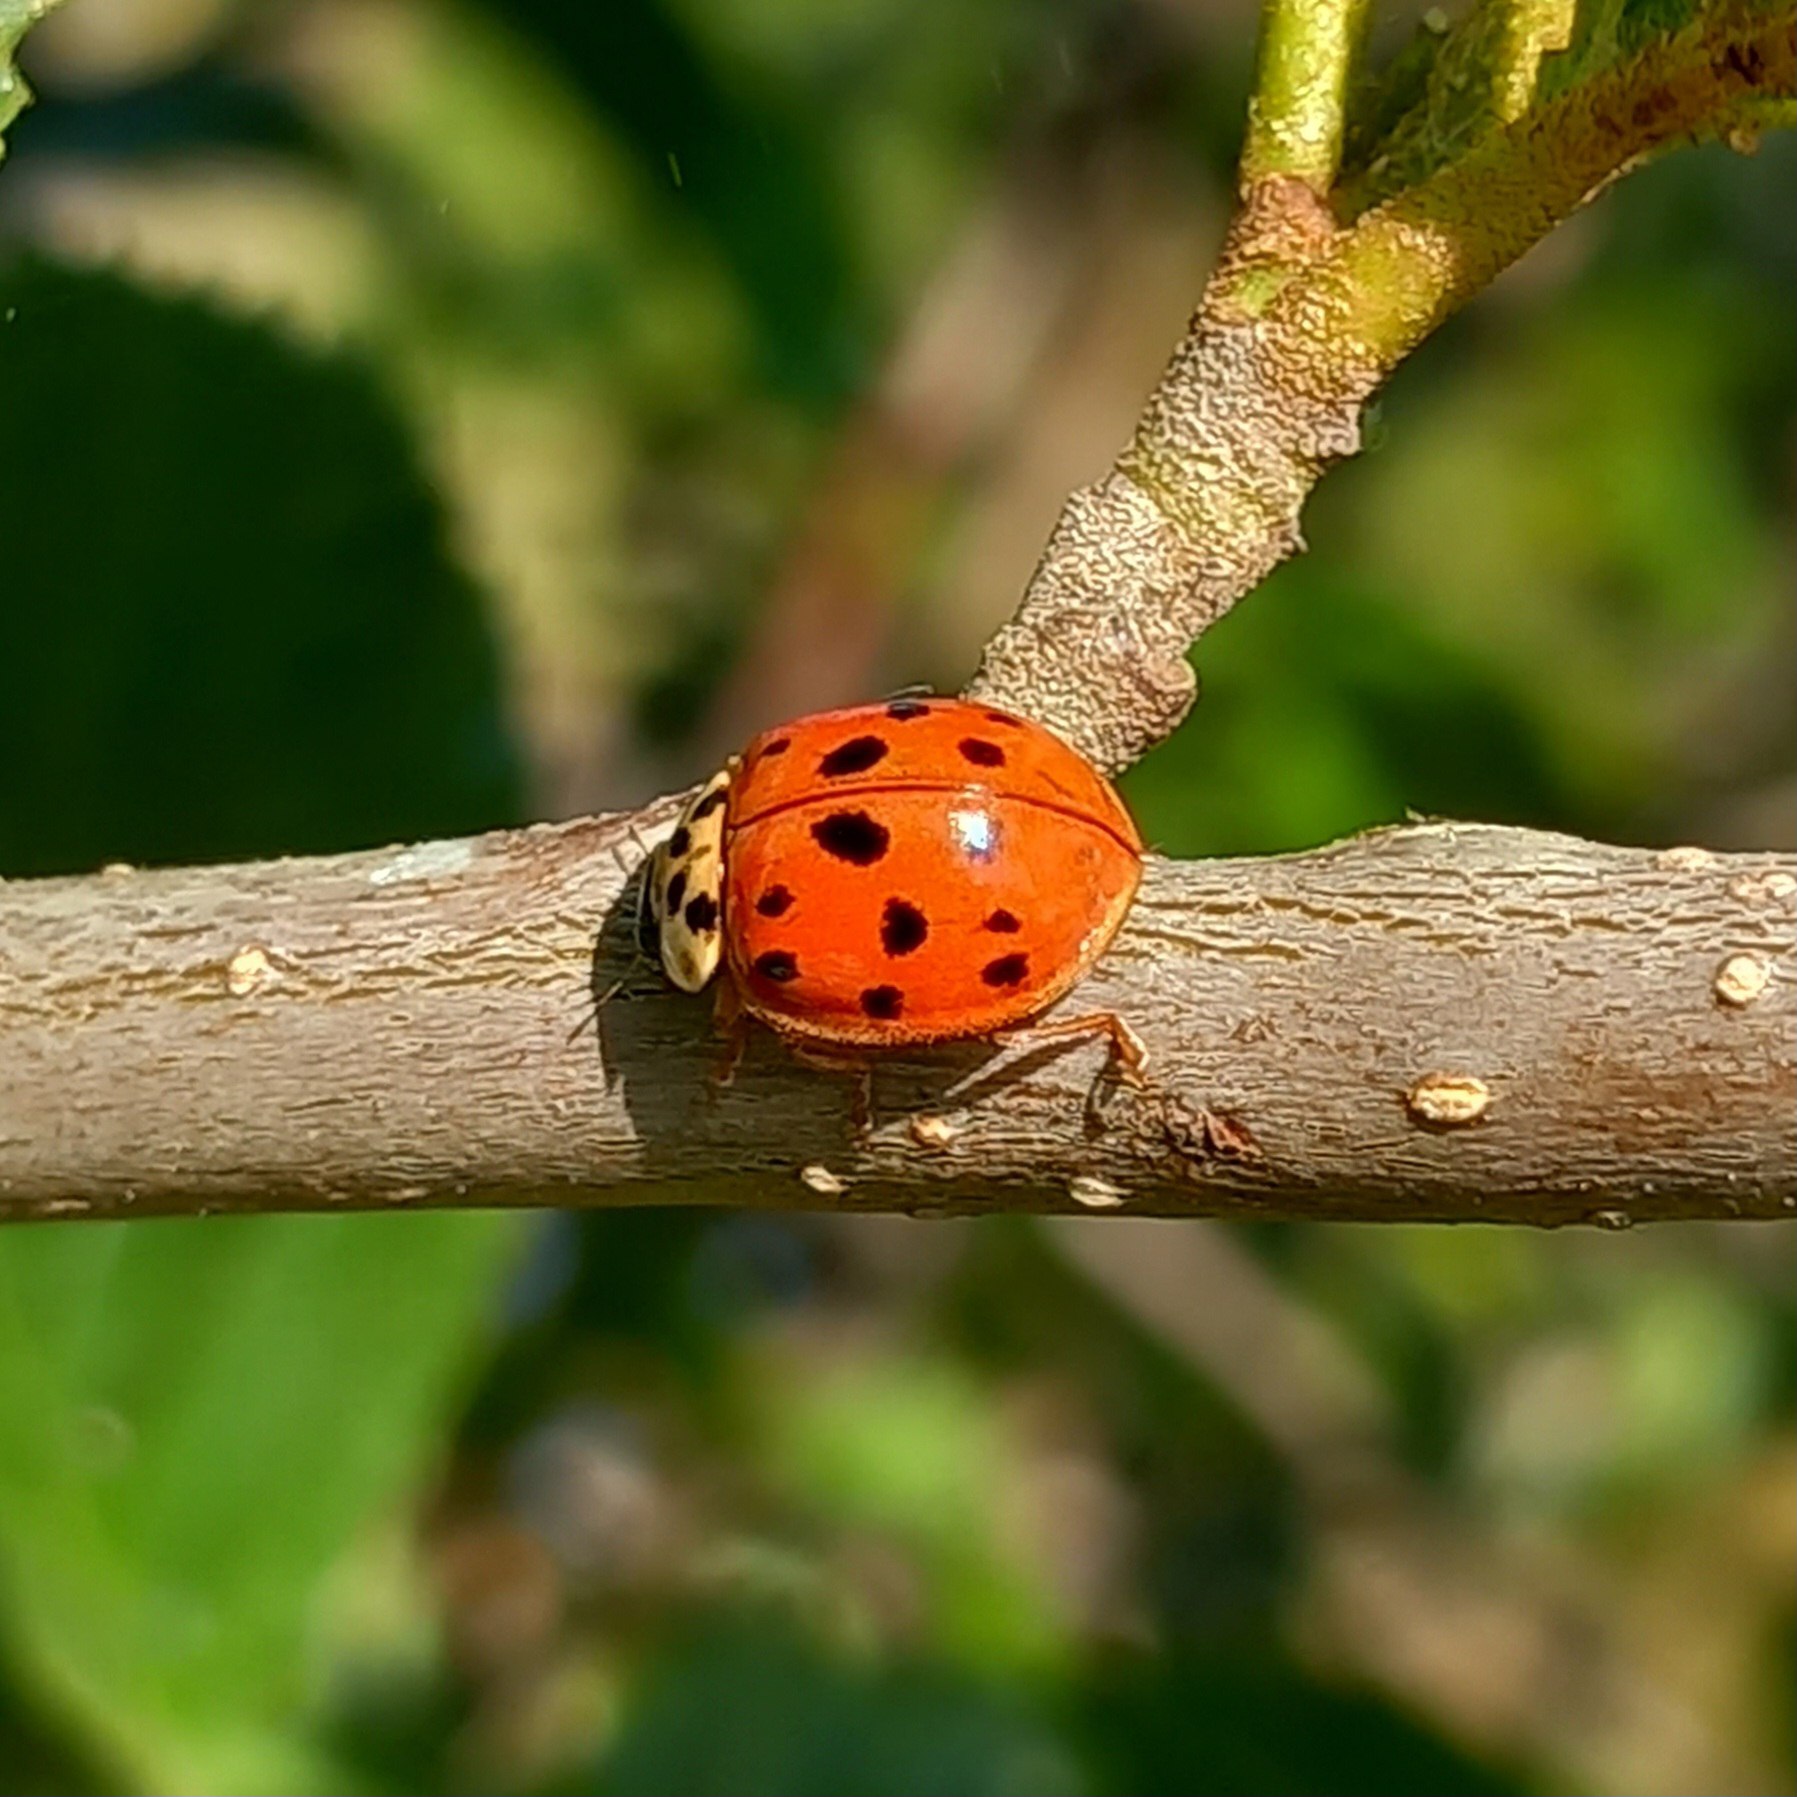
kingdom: Animalia
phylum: Arthropoda
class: Insecta
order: Coleoptera
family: Coccinellidae
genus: Harmonia
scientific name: Harmonia axyridis
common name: Harlekinmariehøne
